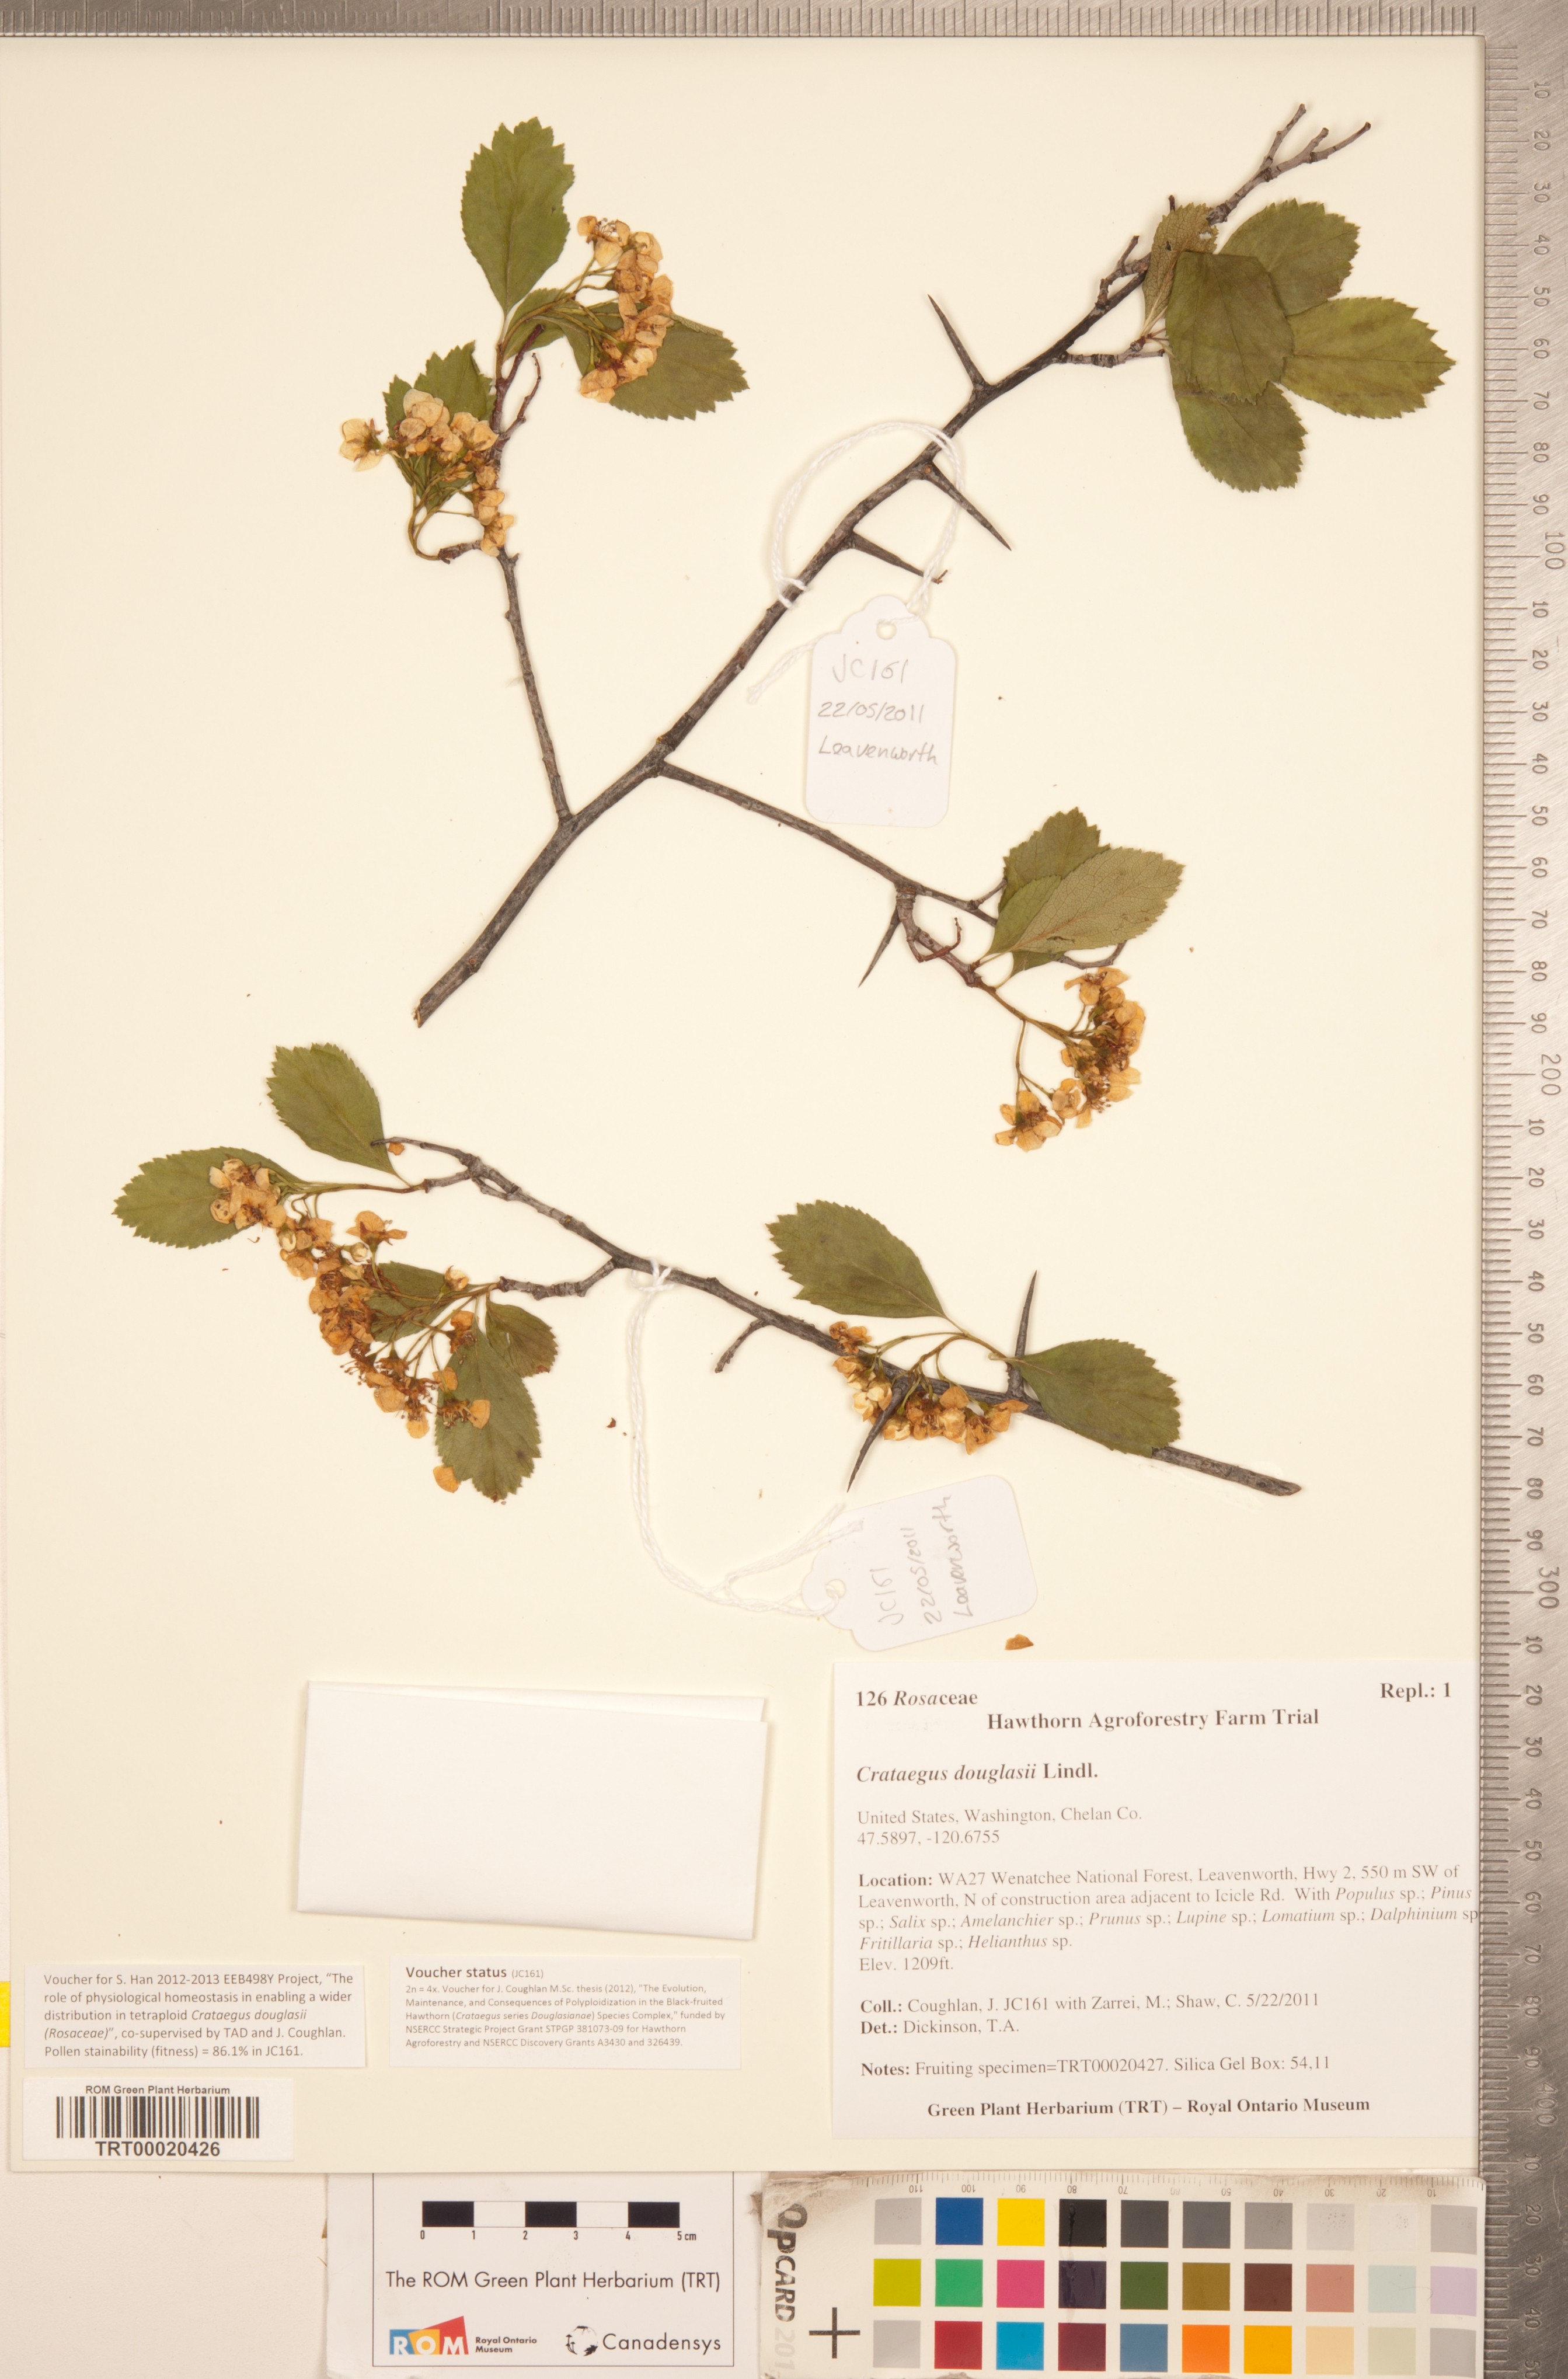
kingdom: Plantae
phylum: Tracheophyta
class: Magnoliopsida
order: Rosales
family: Rosaceae
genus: Crataegus
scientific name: Crataegus douglasii
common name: Black hawthorn
